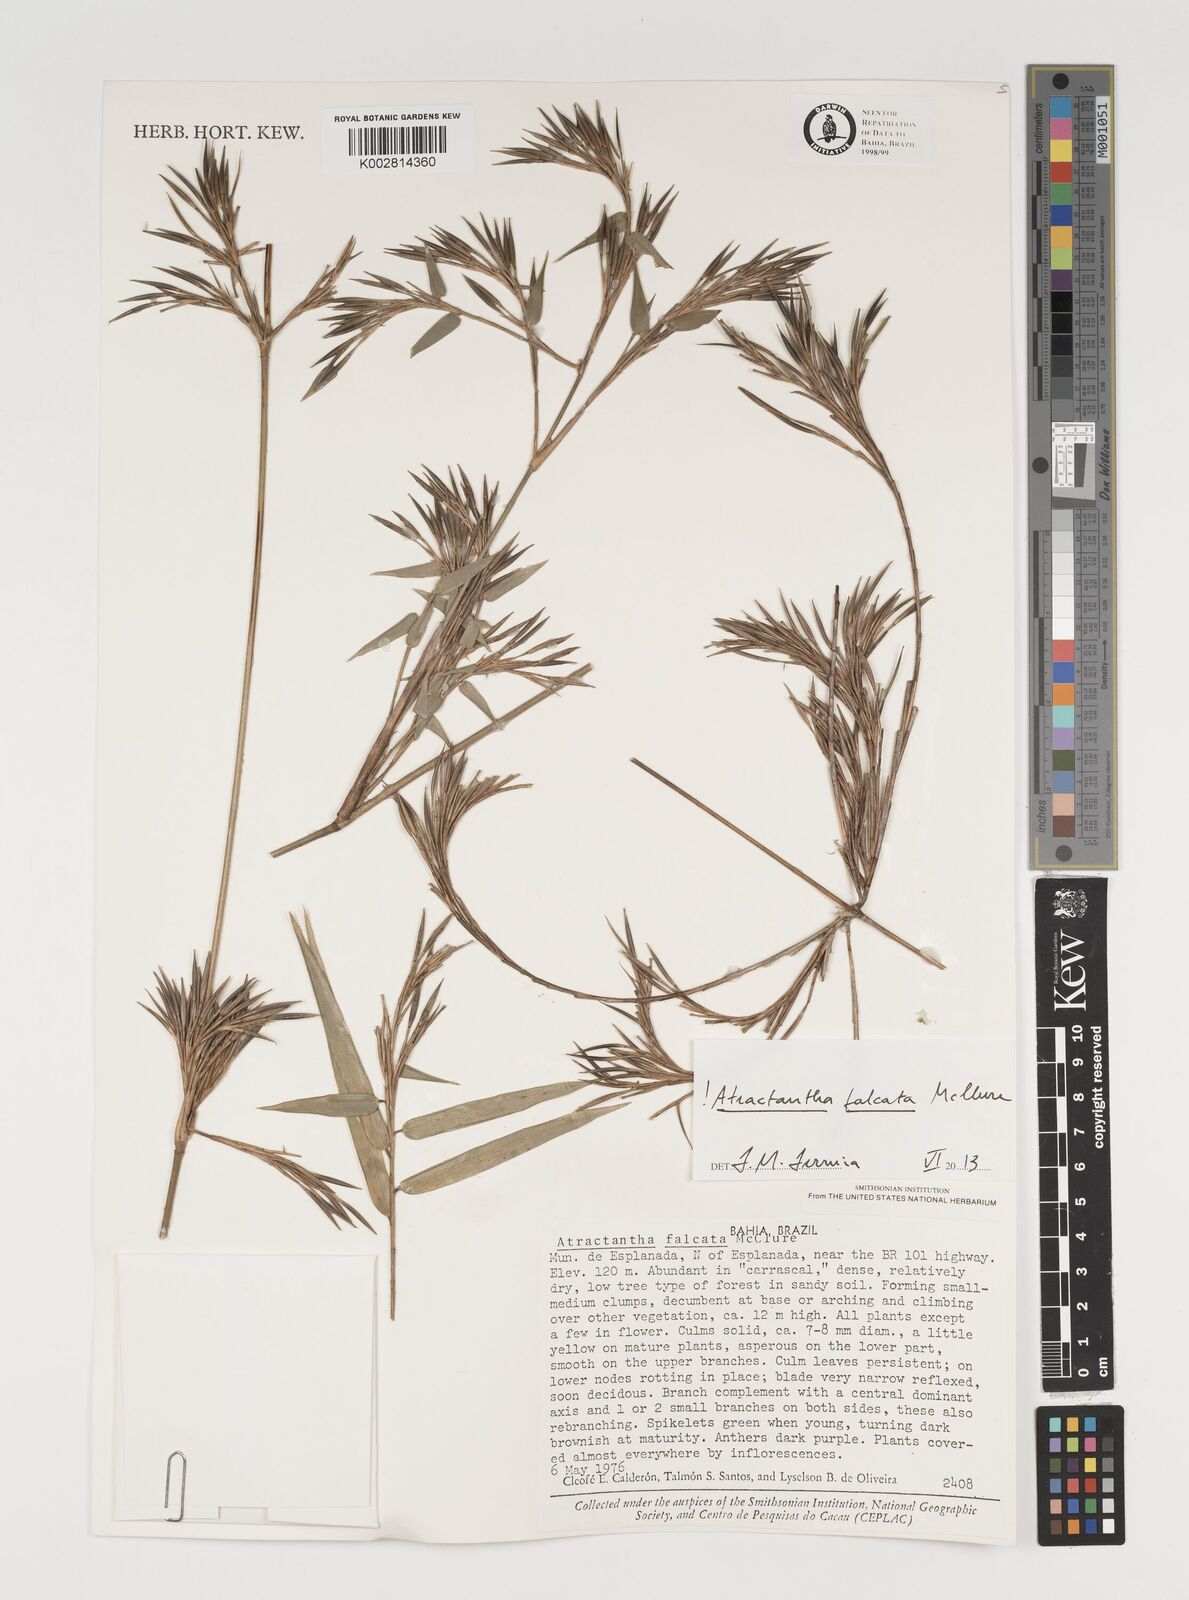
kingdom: Plantae
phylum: Tracheophyta
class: Liliopsida
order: Poales
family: Poaceae
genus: Atractantha
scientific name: Atractantha falcata
